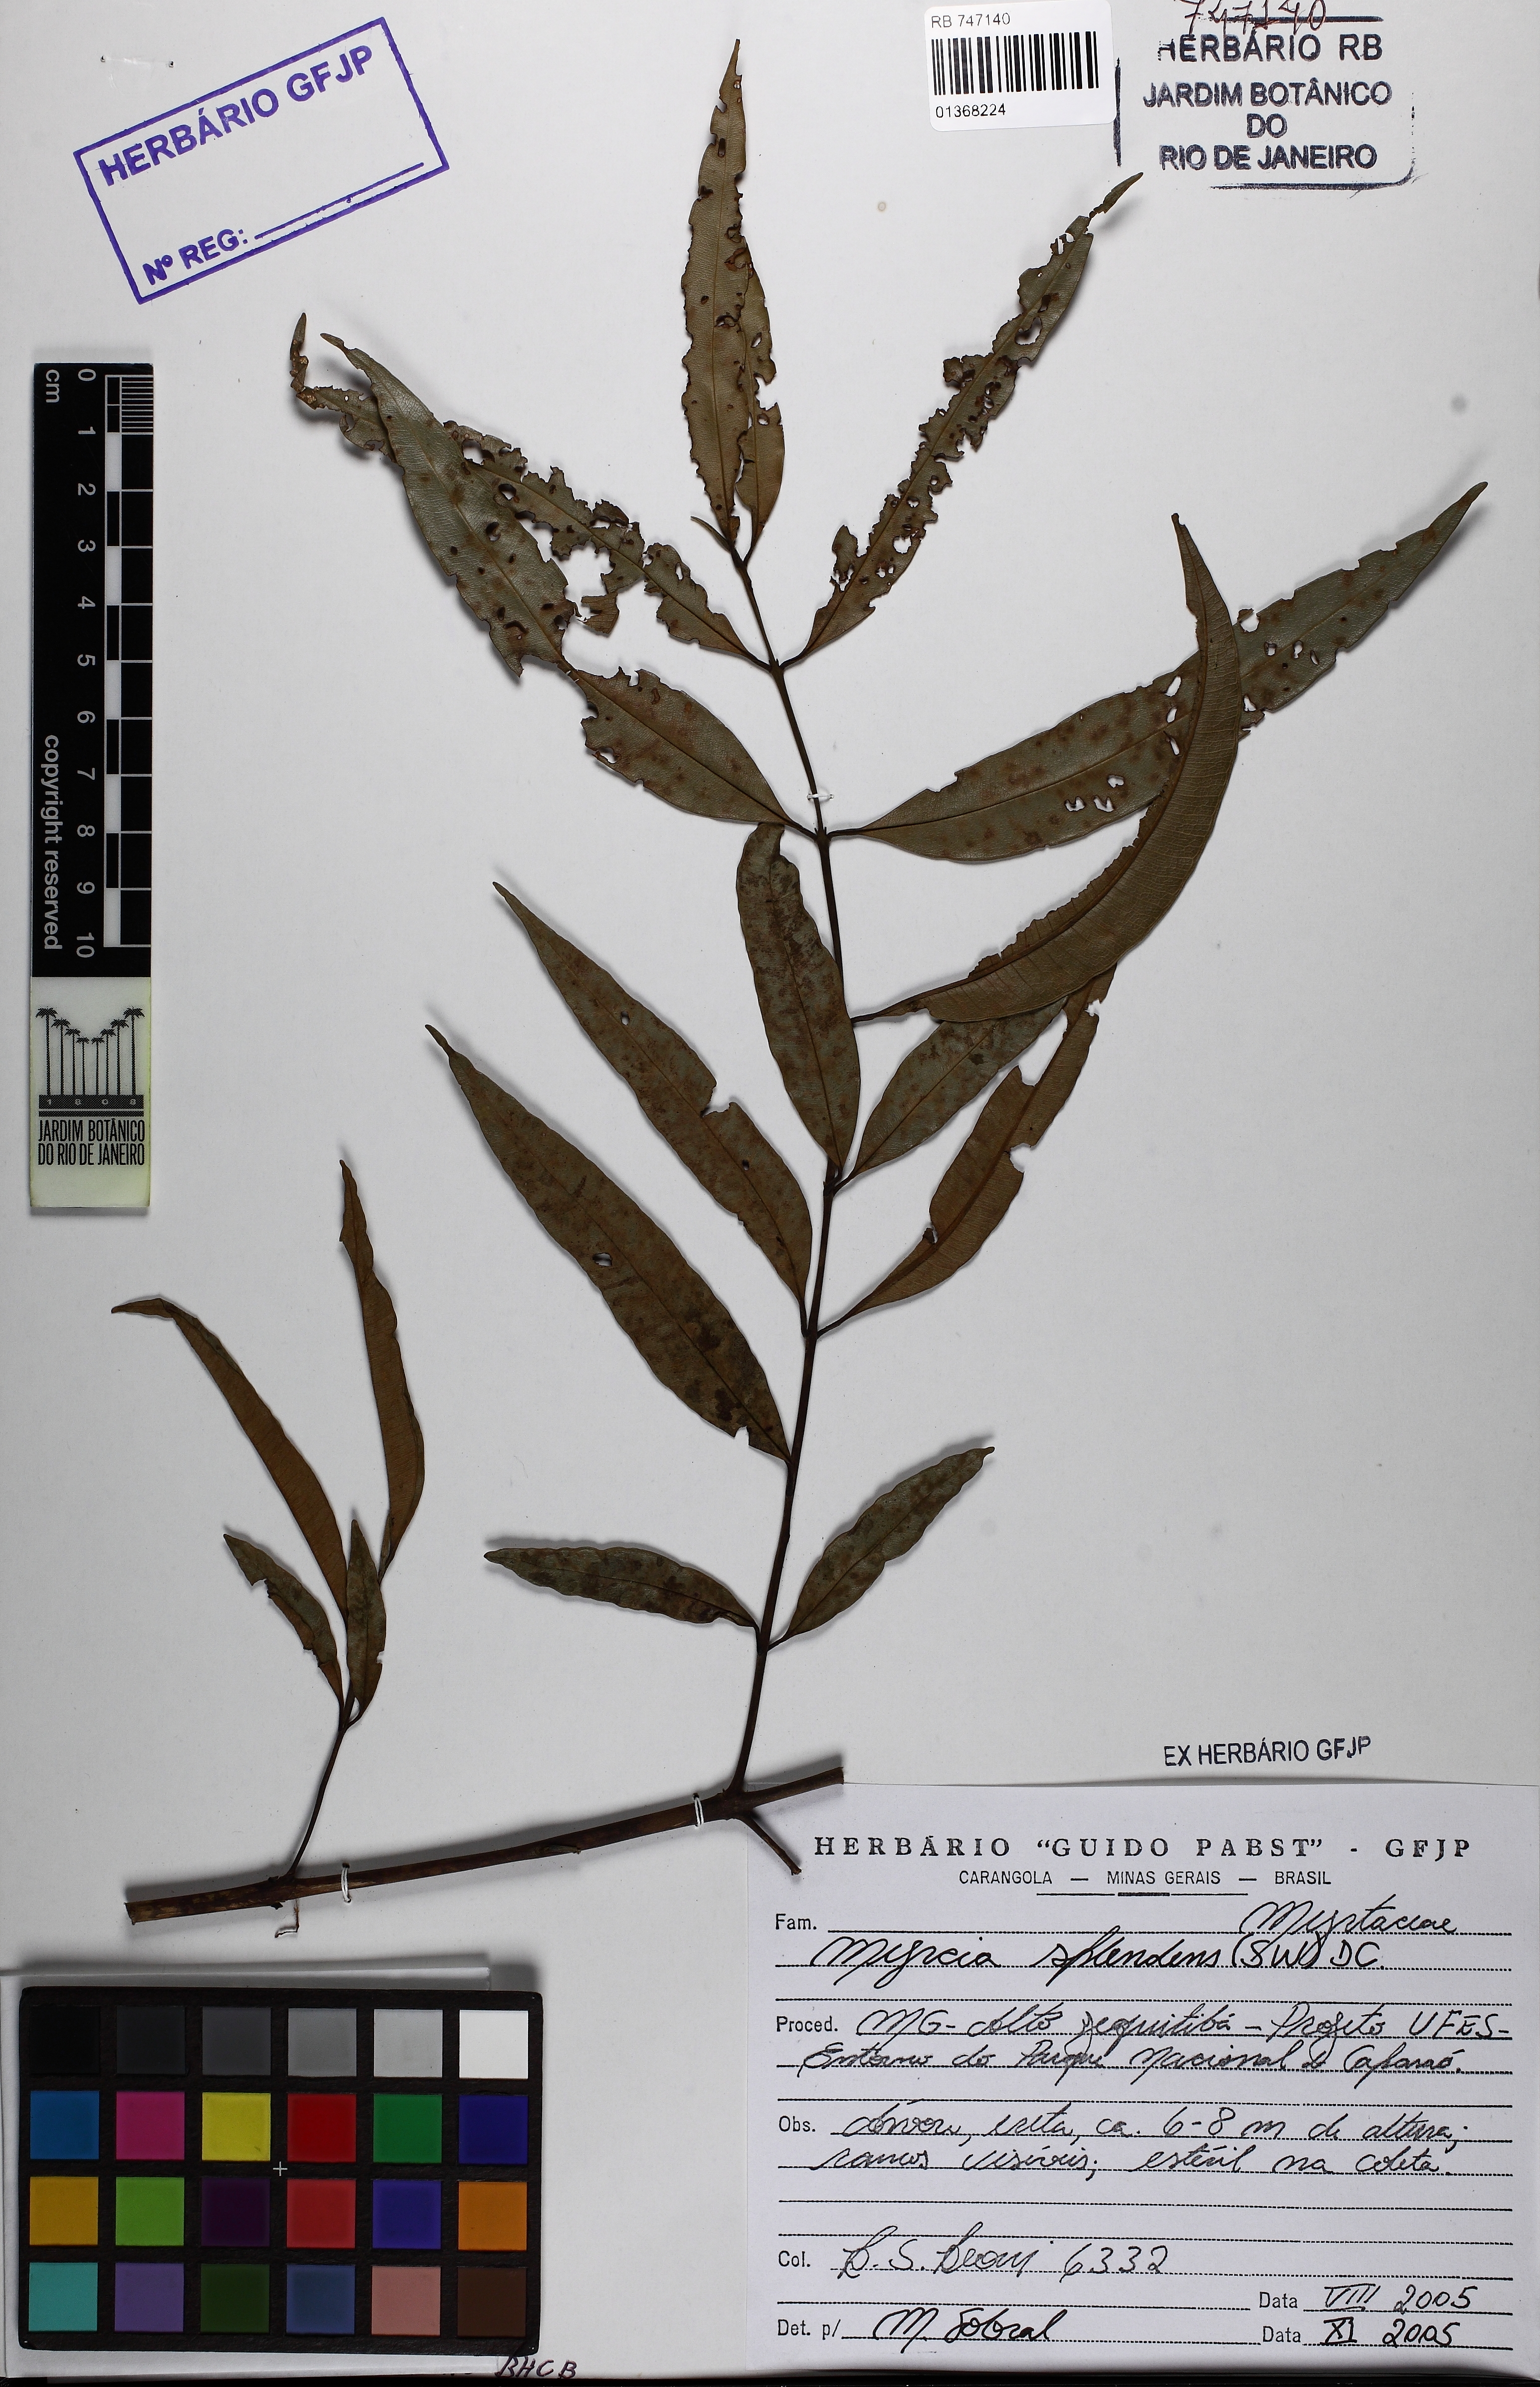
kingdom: Plantae
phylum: Tracheophyta
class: Magnoliopsida
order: Myrtales
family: Myrtaceae
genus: Myrcia
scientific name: Myrcia splendens
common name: Surinam cherry
